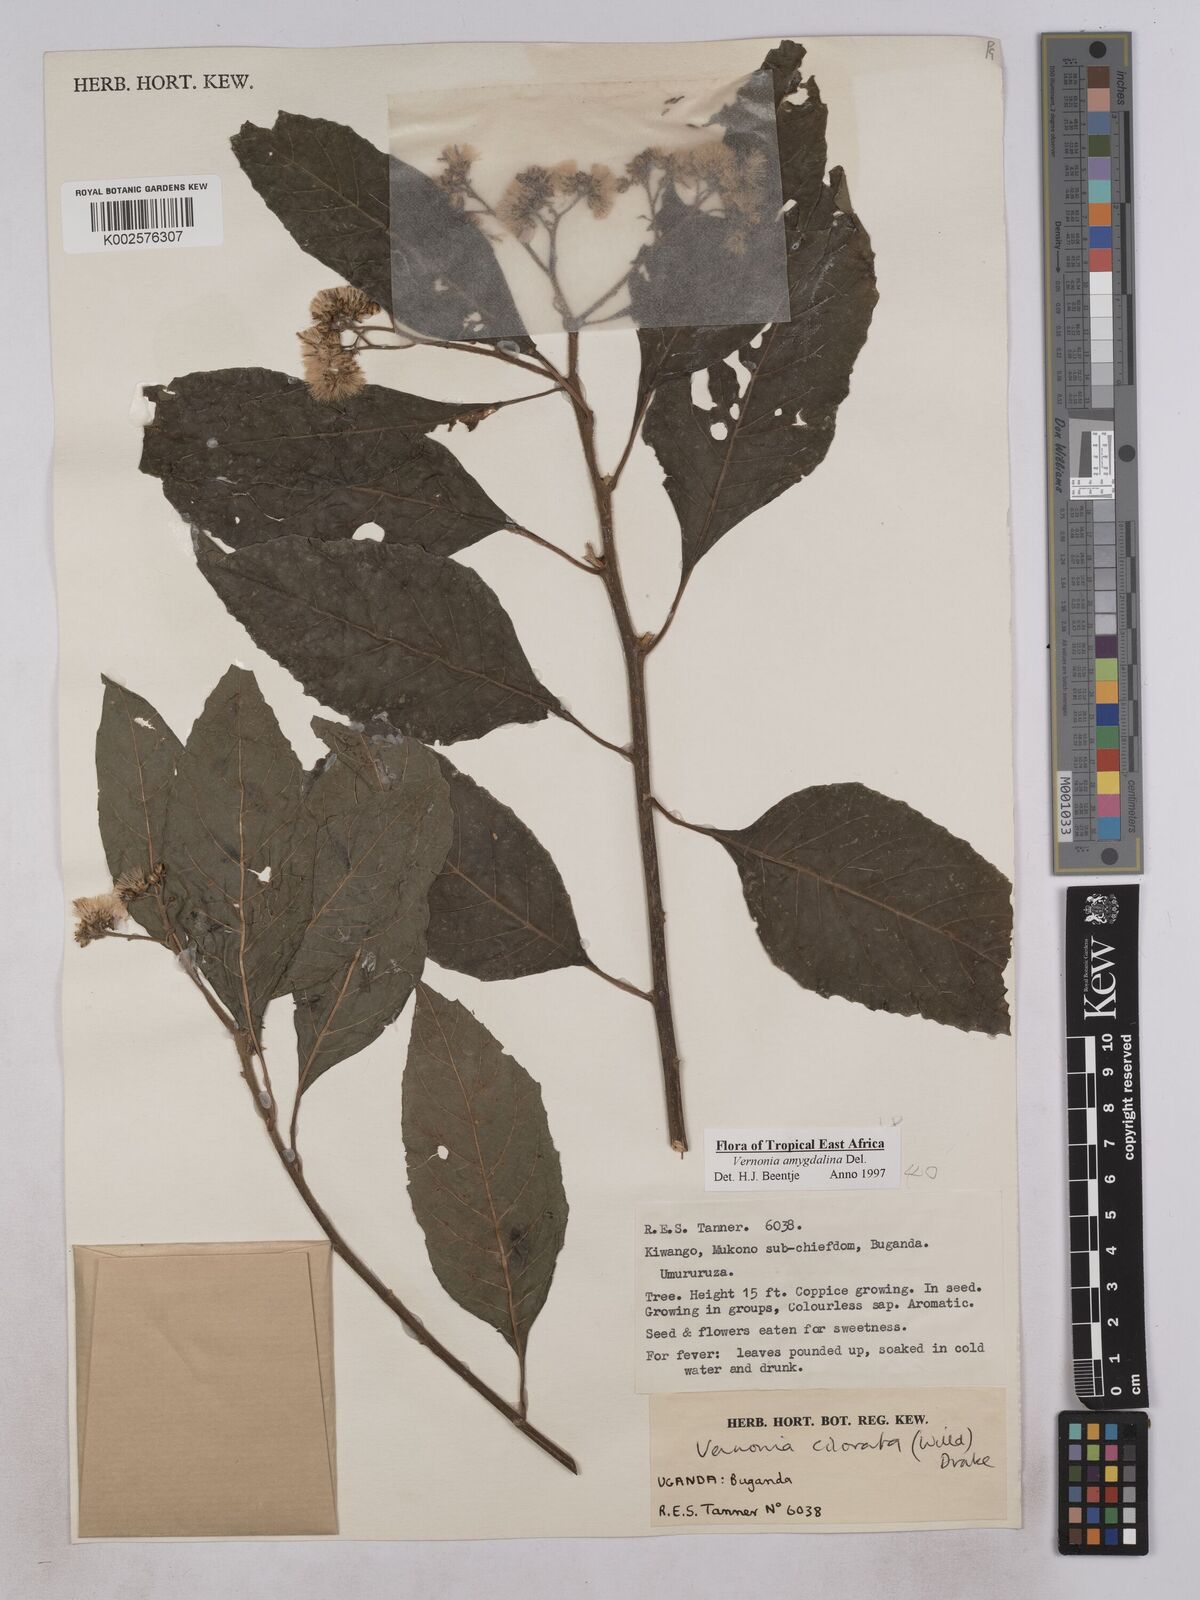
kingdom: Plantae
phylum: Tracheophyta
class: Magnoliopsida
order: Asterales
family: Asteraceae
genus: Gymnanthemum
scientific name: Gymnanthemum amygdalinum
